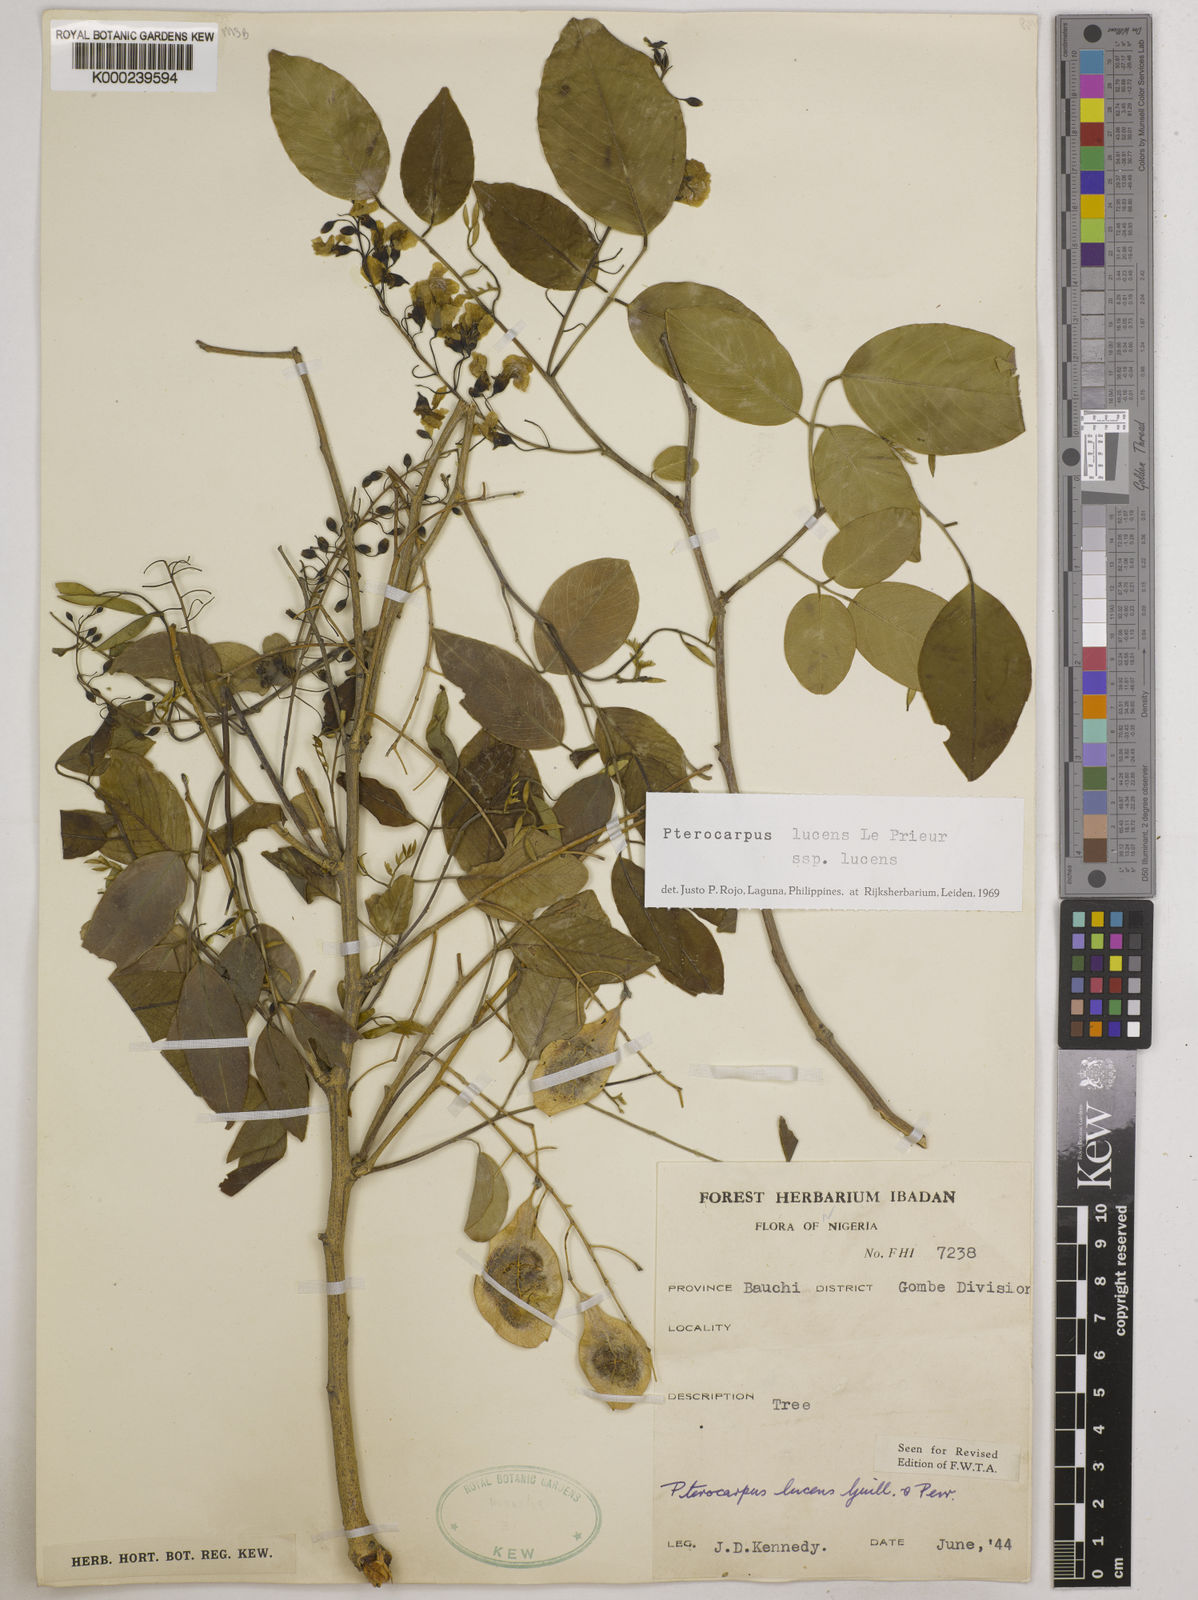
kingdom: Plantae
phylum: Tracheophyta
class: Magnoliopsida
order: Fabales
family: Fabaceae
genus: Pterocarpus
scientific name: Pterocarpus lucens
